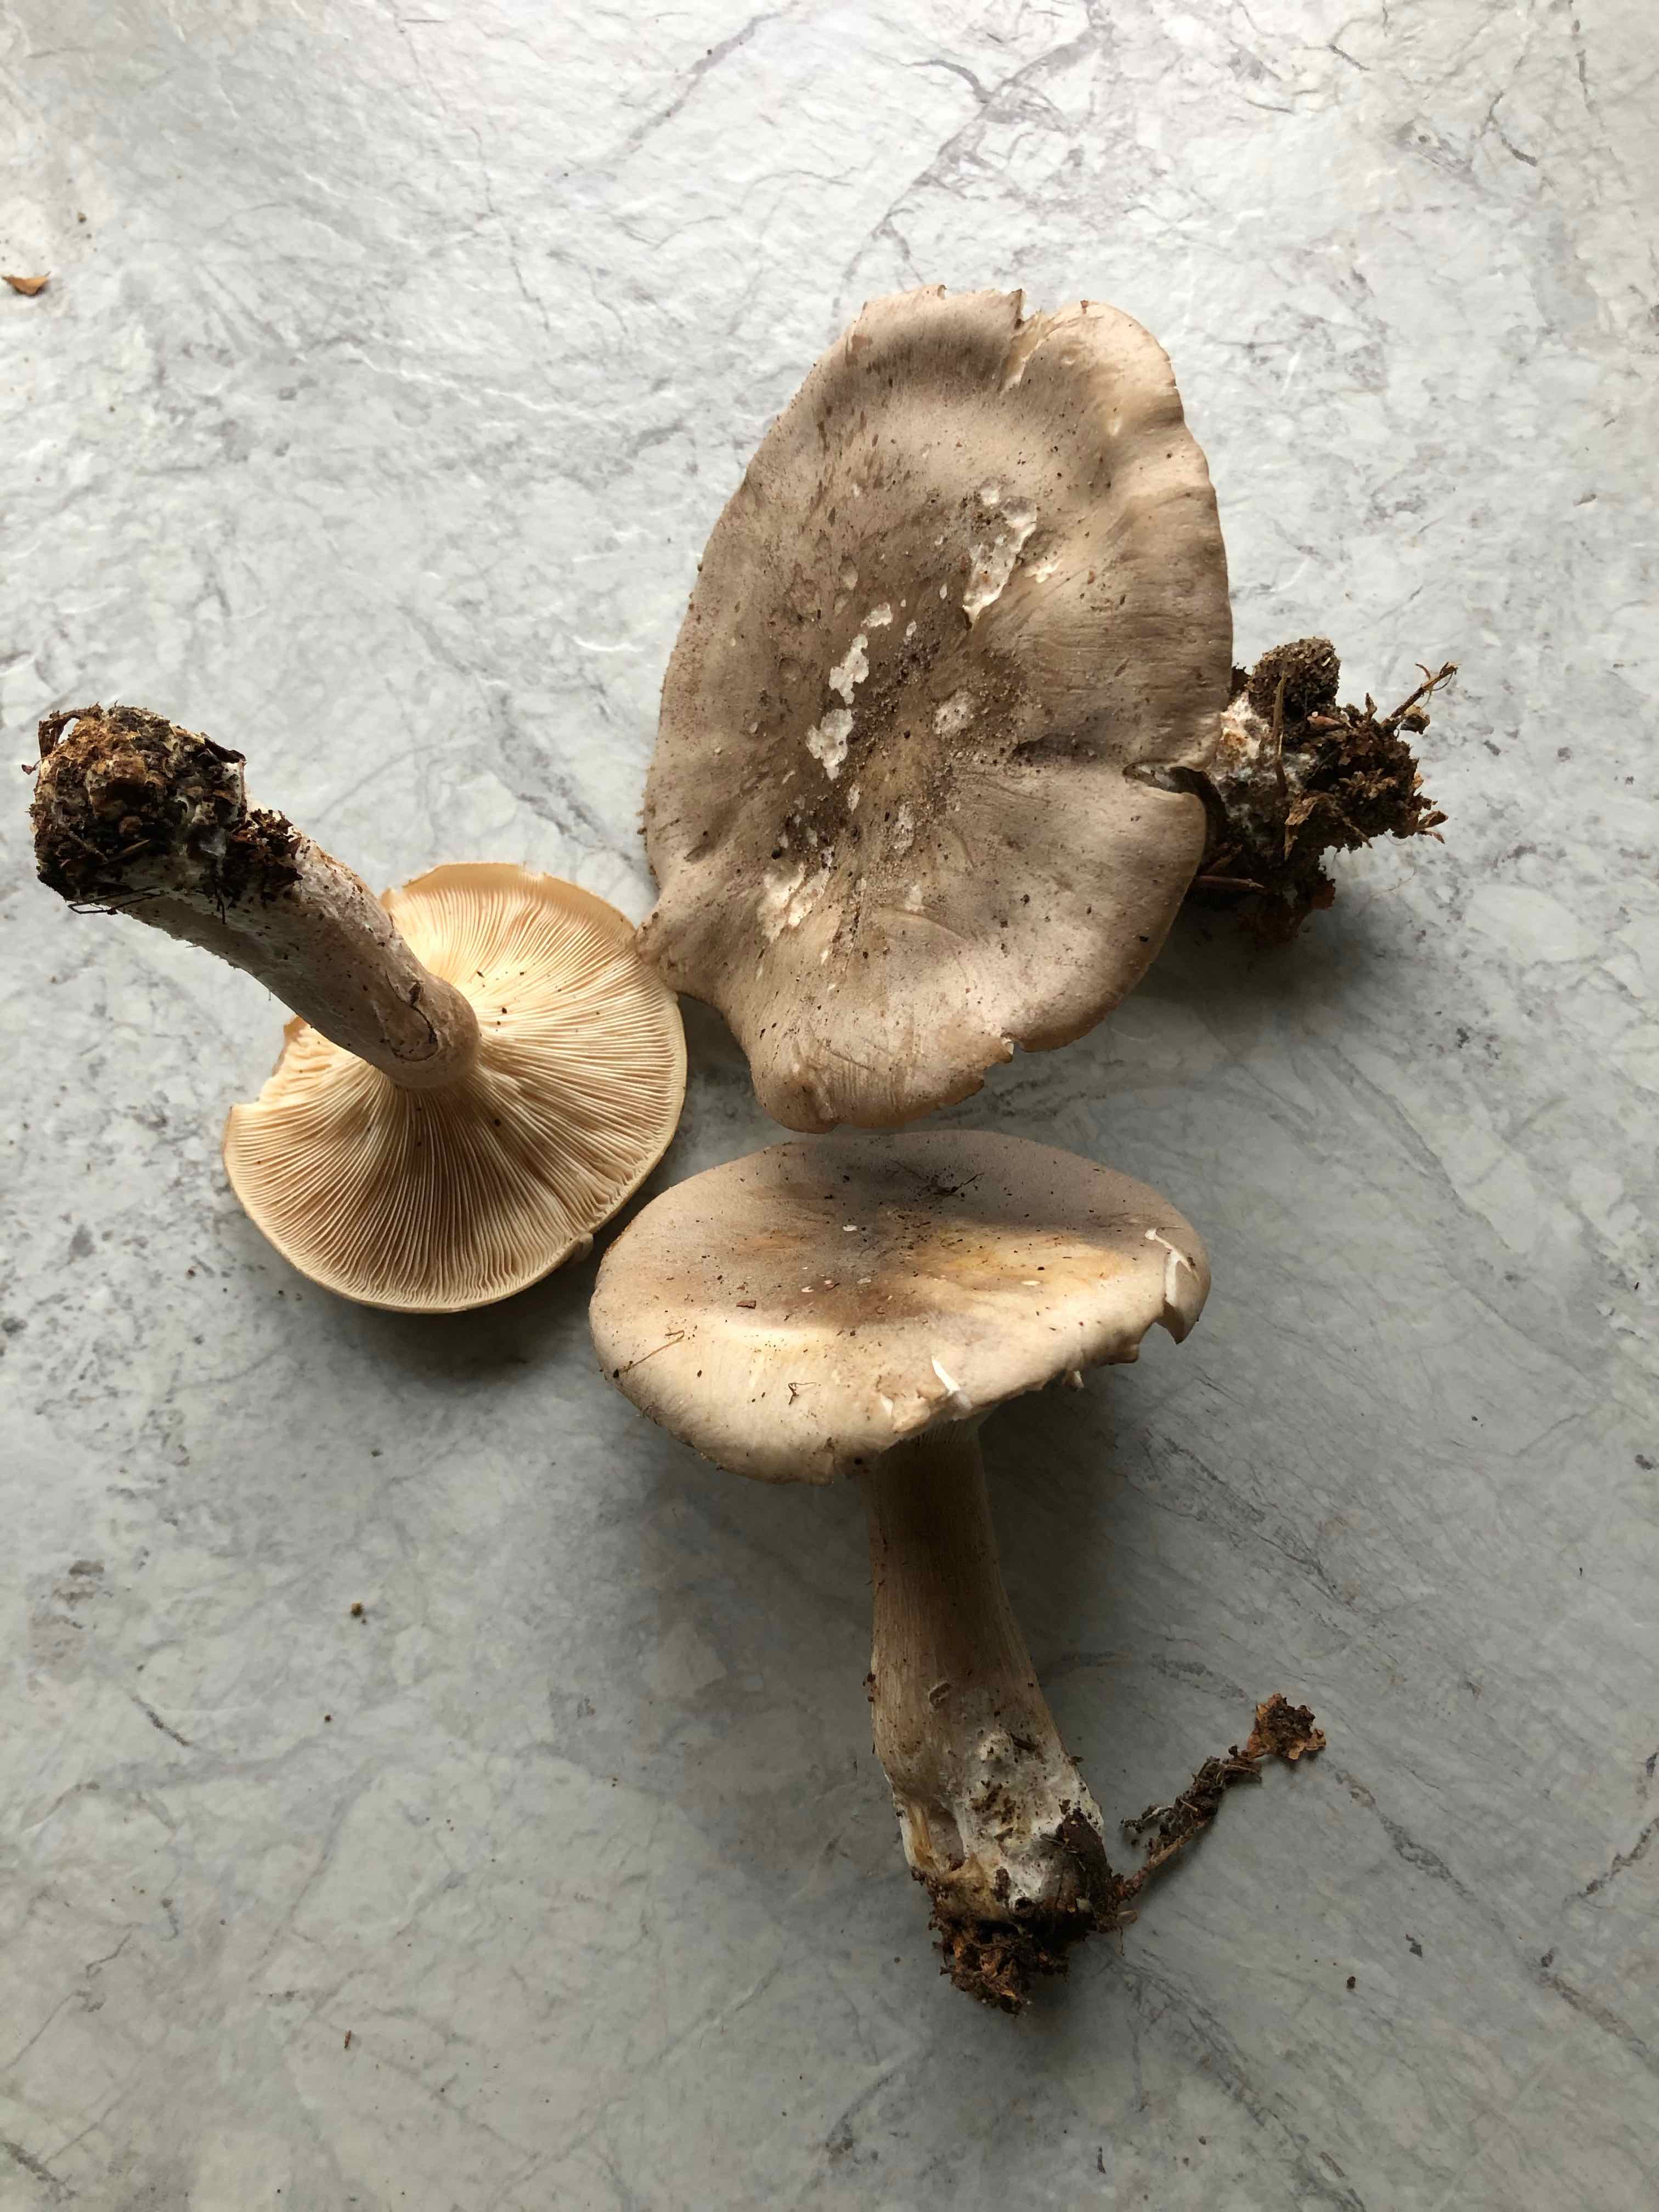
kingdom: Fungi
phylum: Basidiomycota
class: Agaricomycetes
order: Agaricales
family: Tricholomataceae
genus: Clitocybe
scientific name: Clitocybe nebularis
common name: tåge-tragthat
